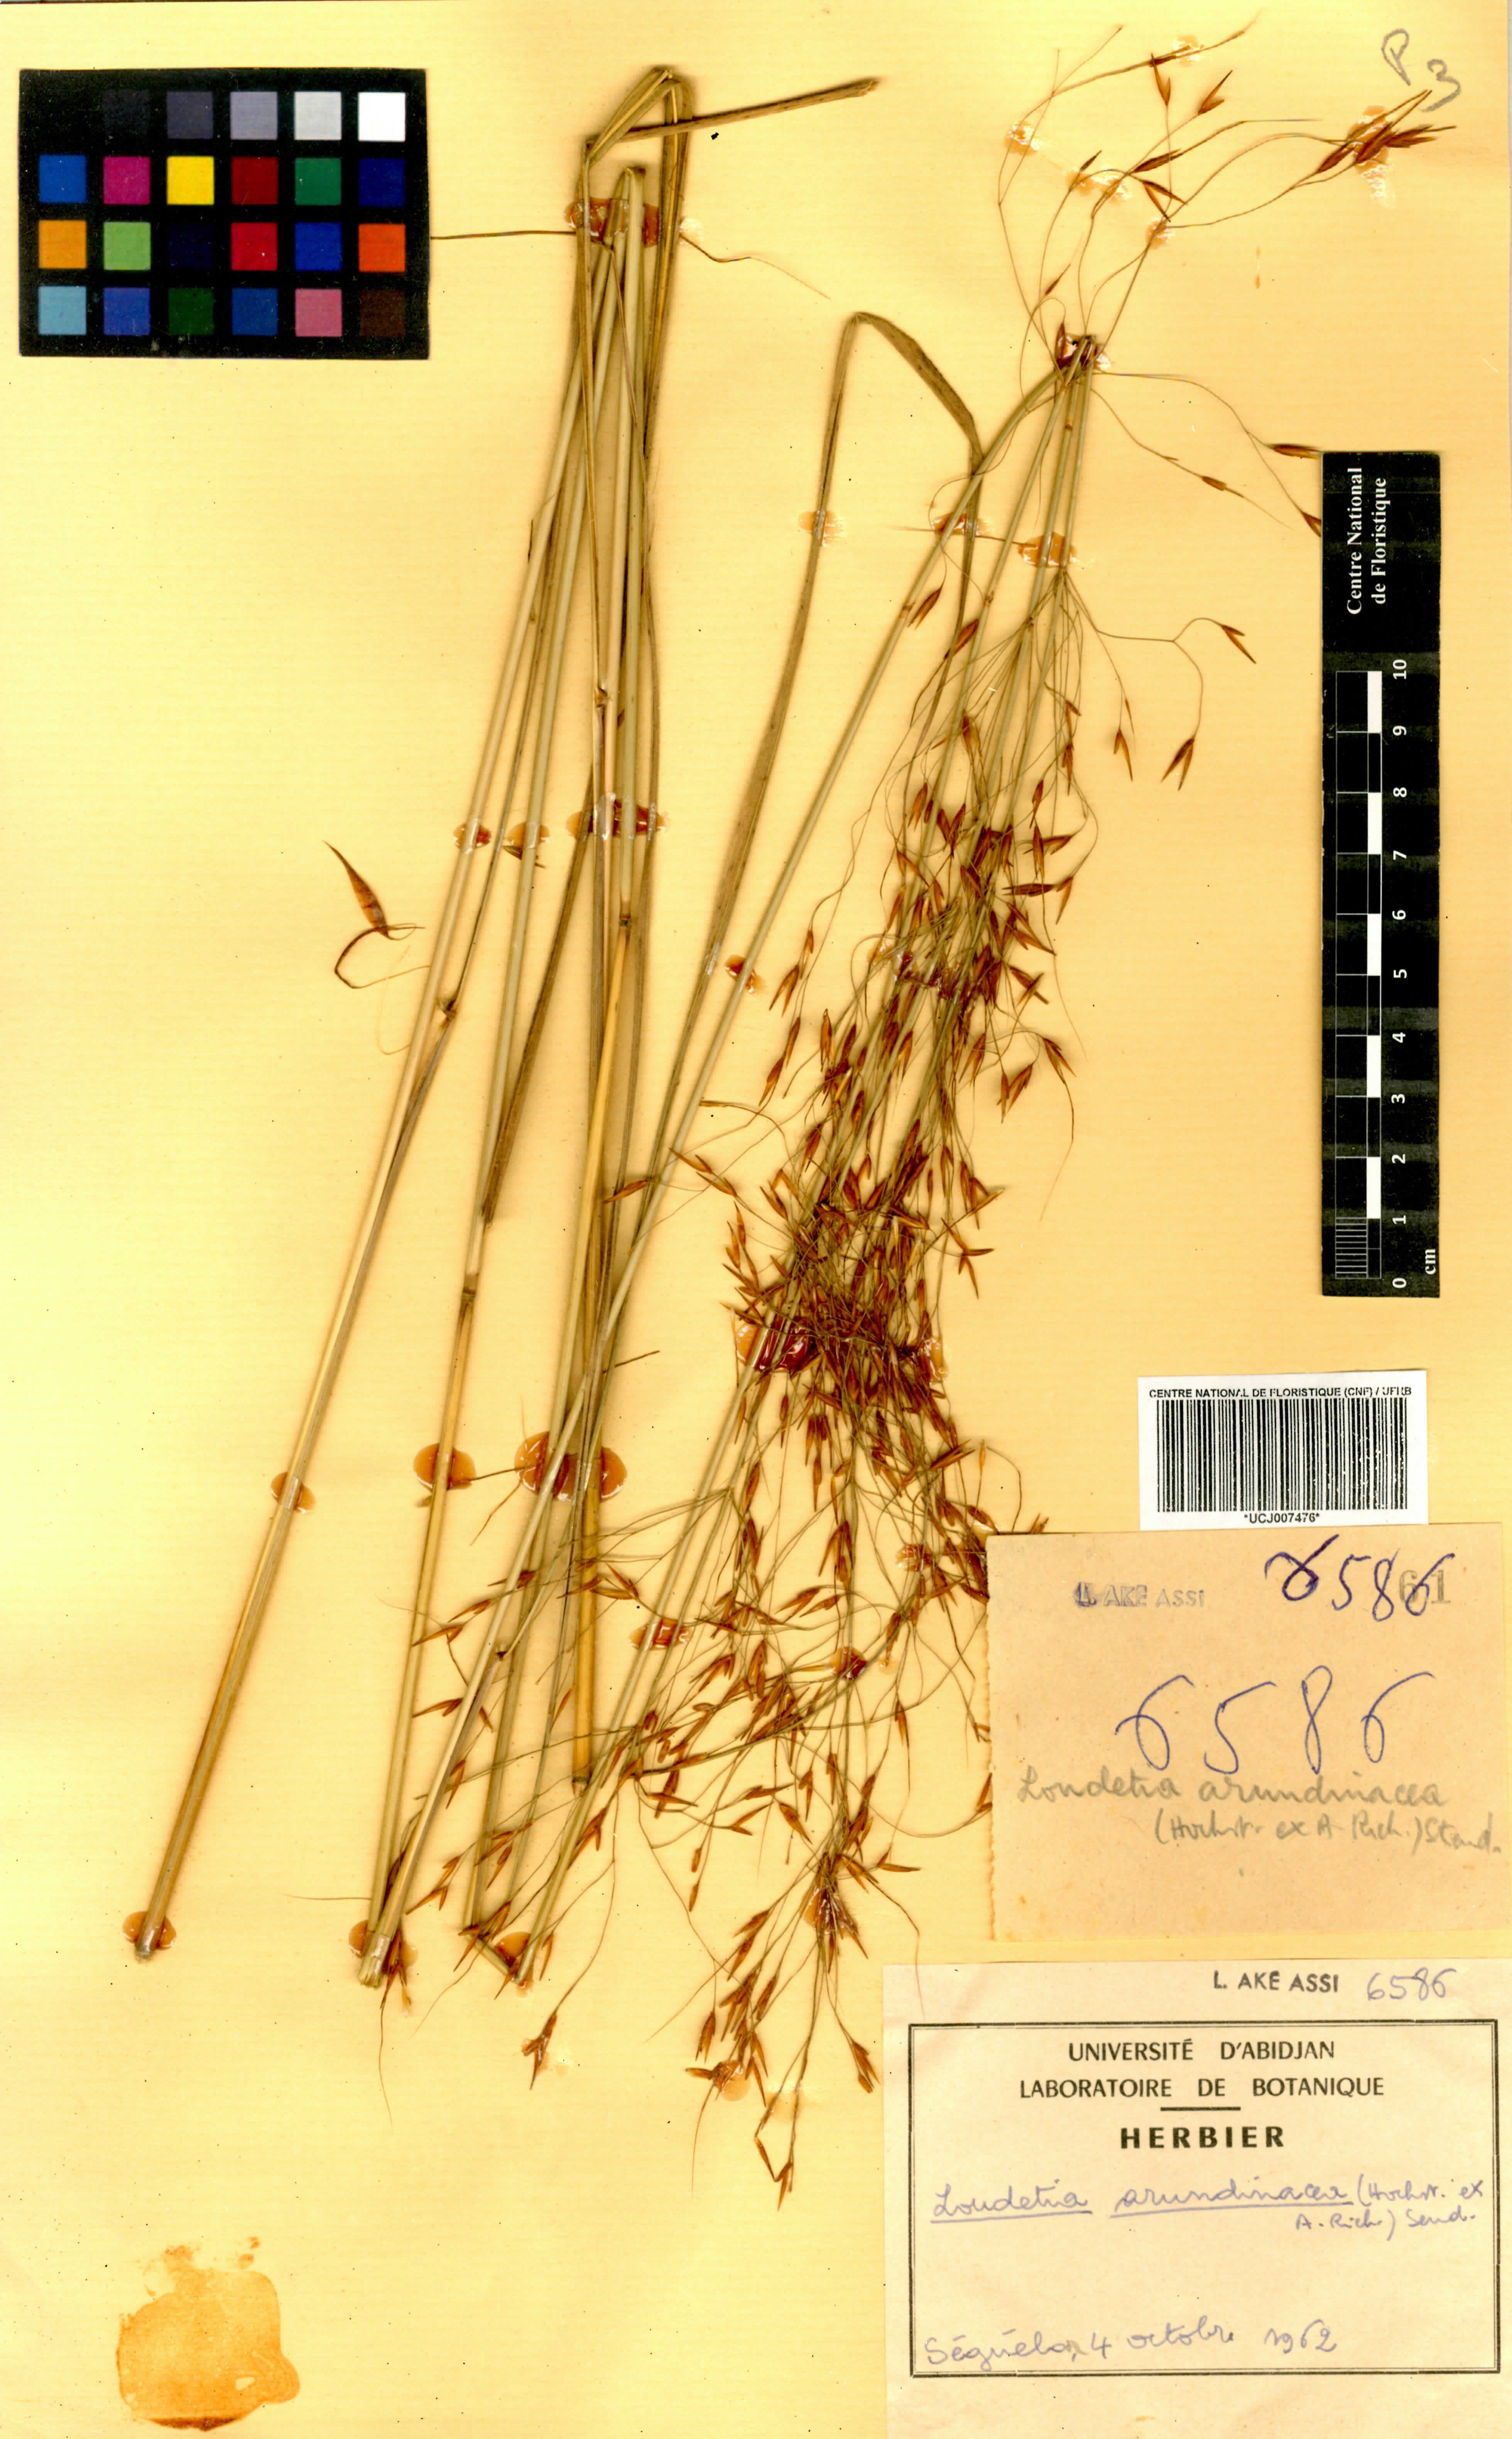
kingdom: Plantae
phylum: Tracheophyta
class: Liliopsida
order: Poales
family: Poaceae
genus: Loudetia
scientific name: Loudetia arundinacea
